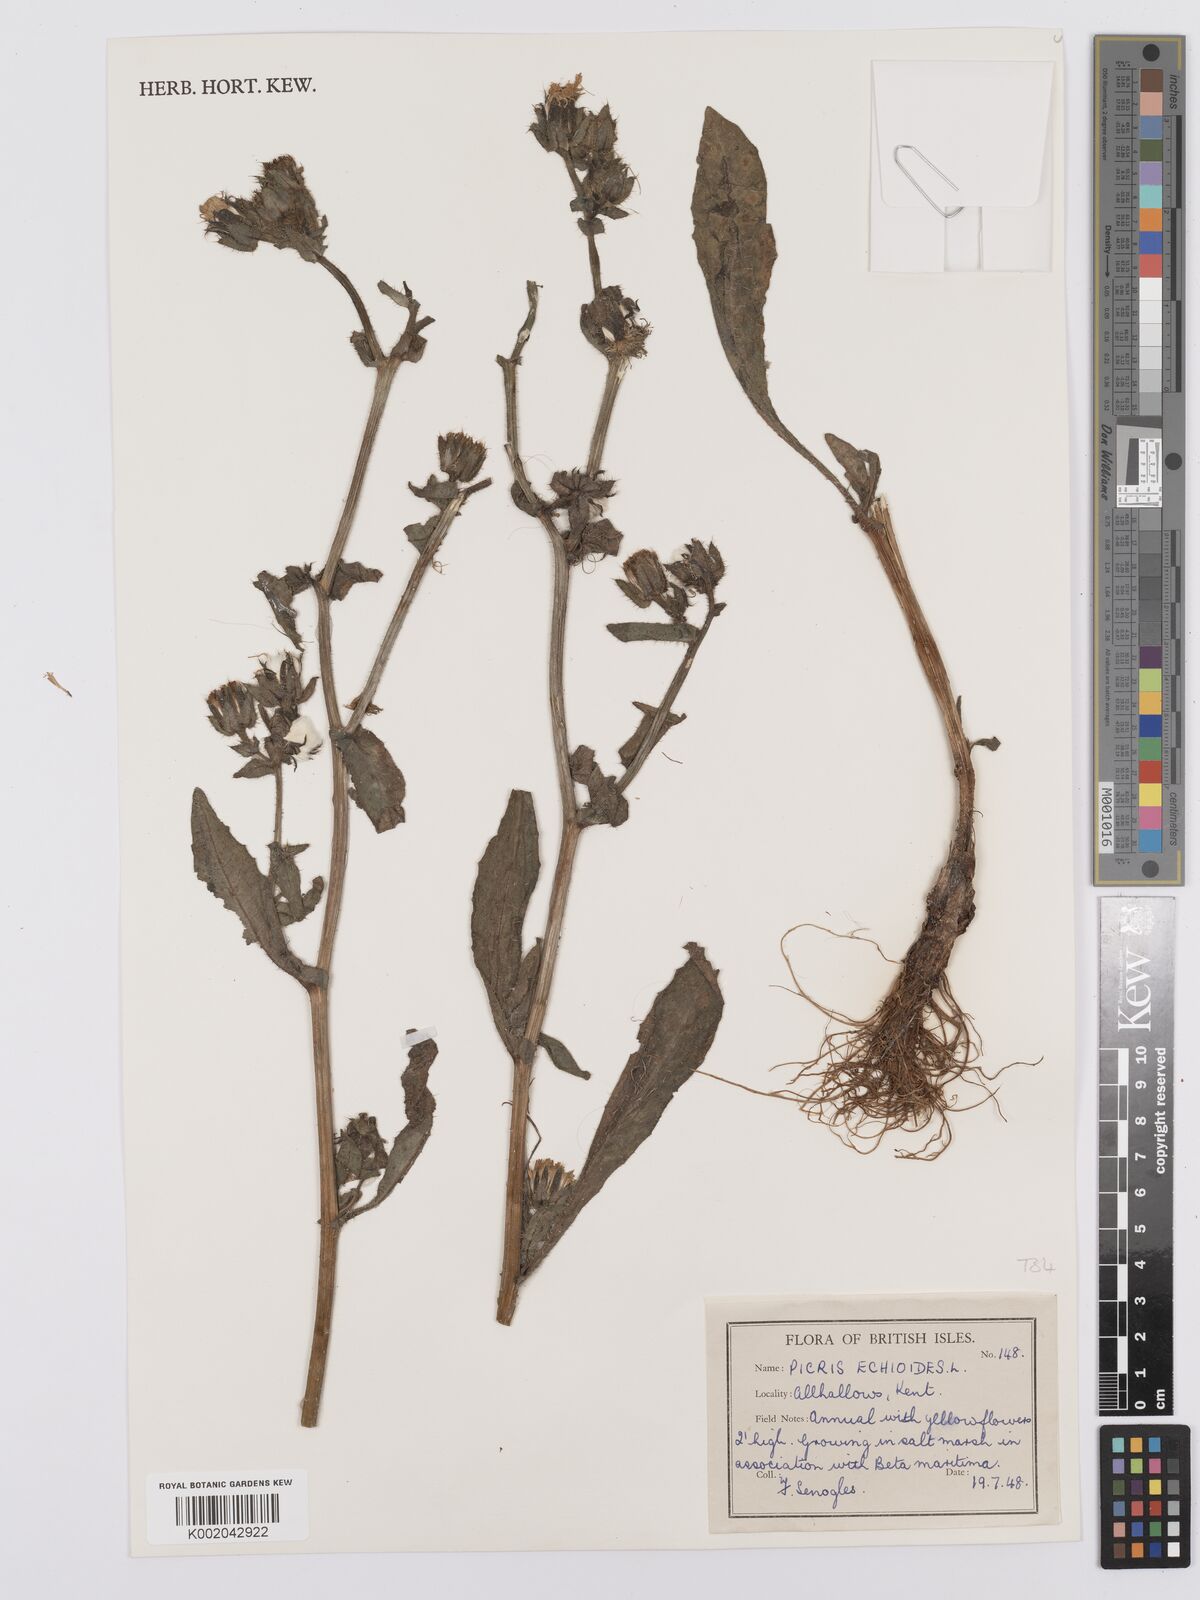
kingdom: Plantae
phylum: Tracheophyta
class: Magnoliopsida
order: Asterales
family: Asteraceae
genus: Helminthotheca
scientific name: Helminthotheca echioides
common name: Ox-tongue
